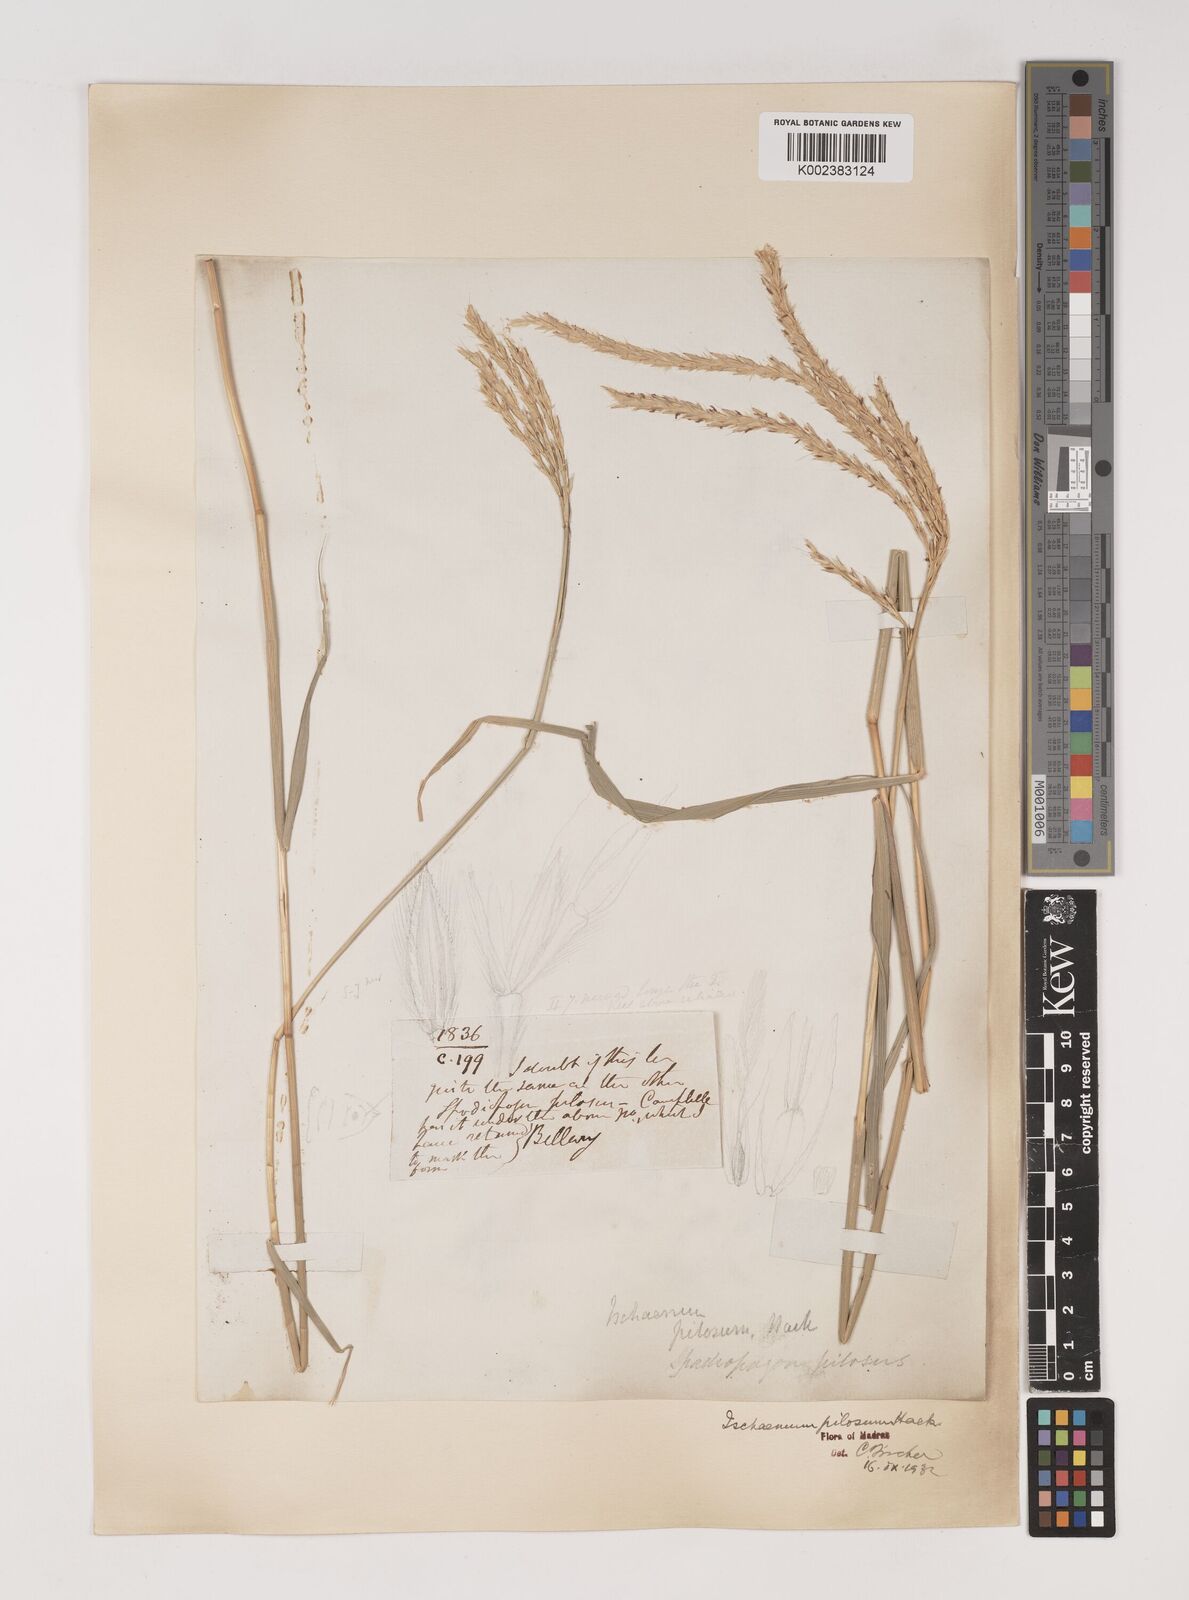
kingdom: Plantae
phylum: Tracheophyta
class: Liliopsida
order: Poales
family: Poaceae
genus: Ischaemum
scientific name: Ischaemum afrum
